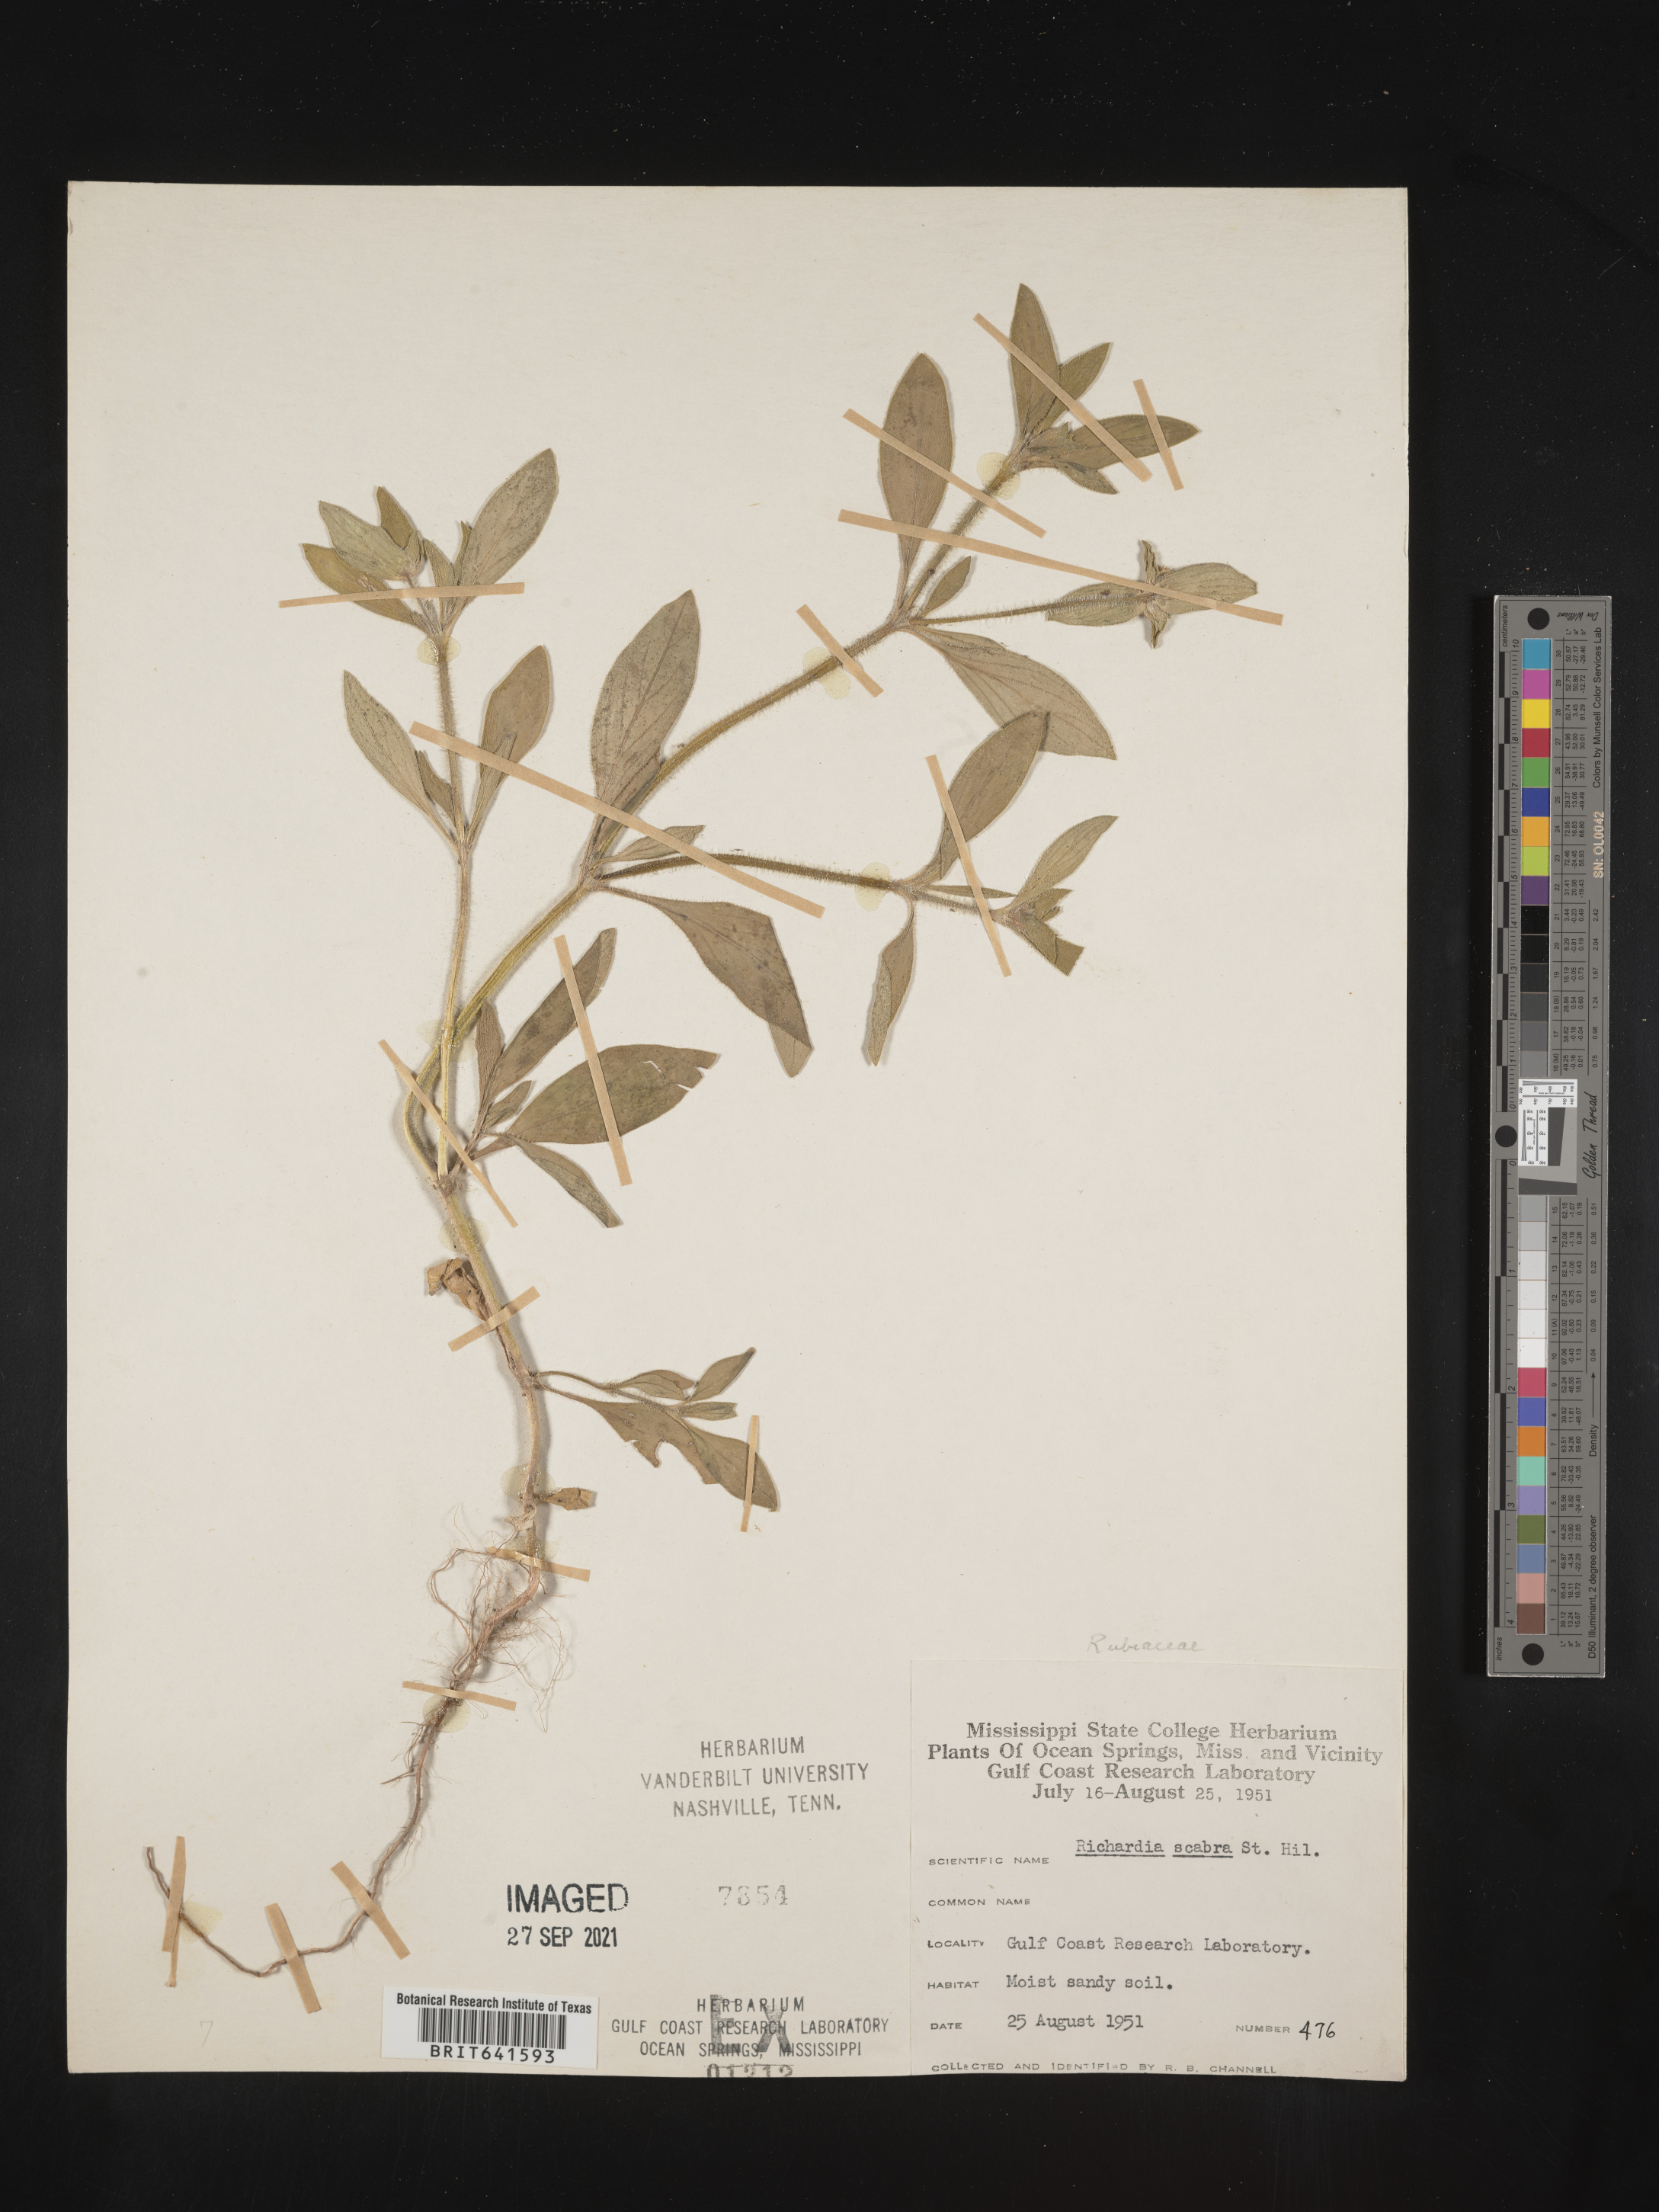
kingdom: Plantae
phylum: Tracheophyta
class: Magnoliopsida
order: Gentianales
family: Rubiaceae
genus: Richardia
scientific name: Richardia scabra
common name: Rough mexican clover
